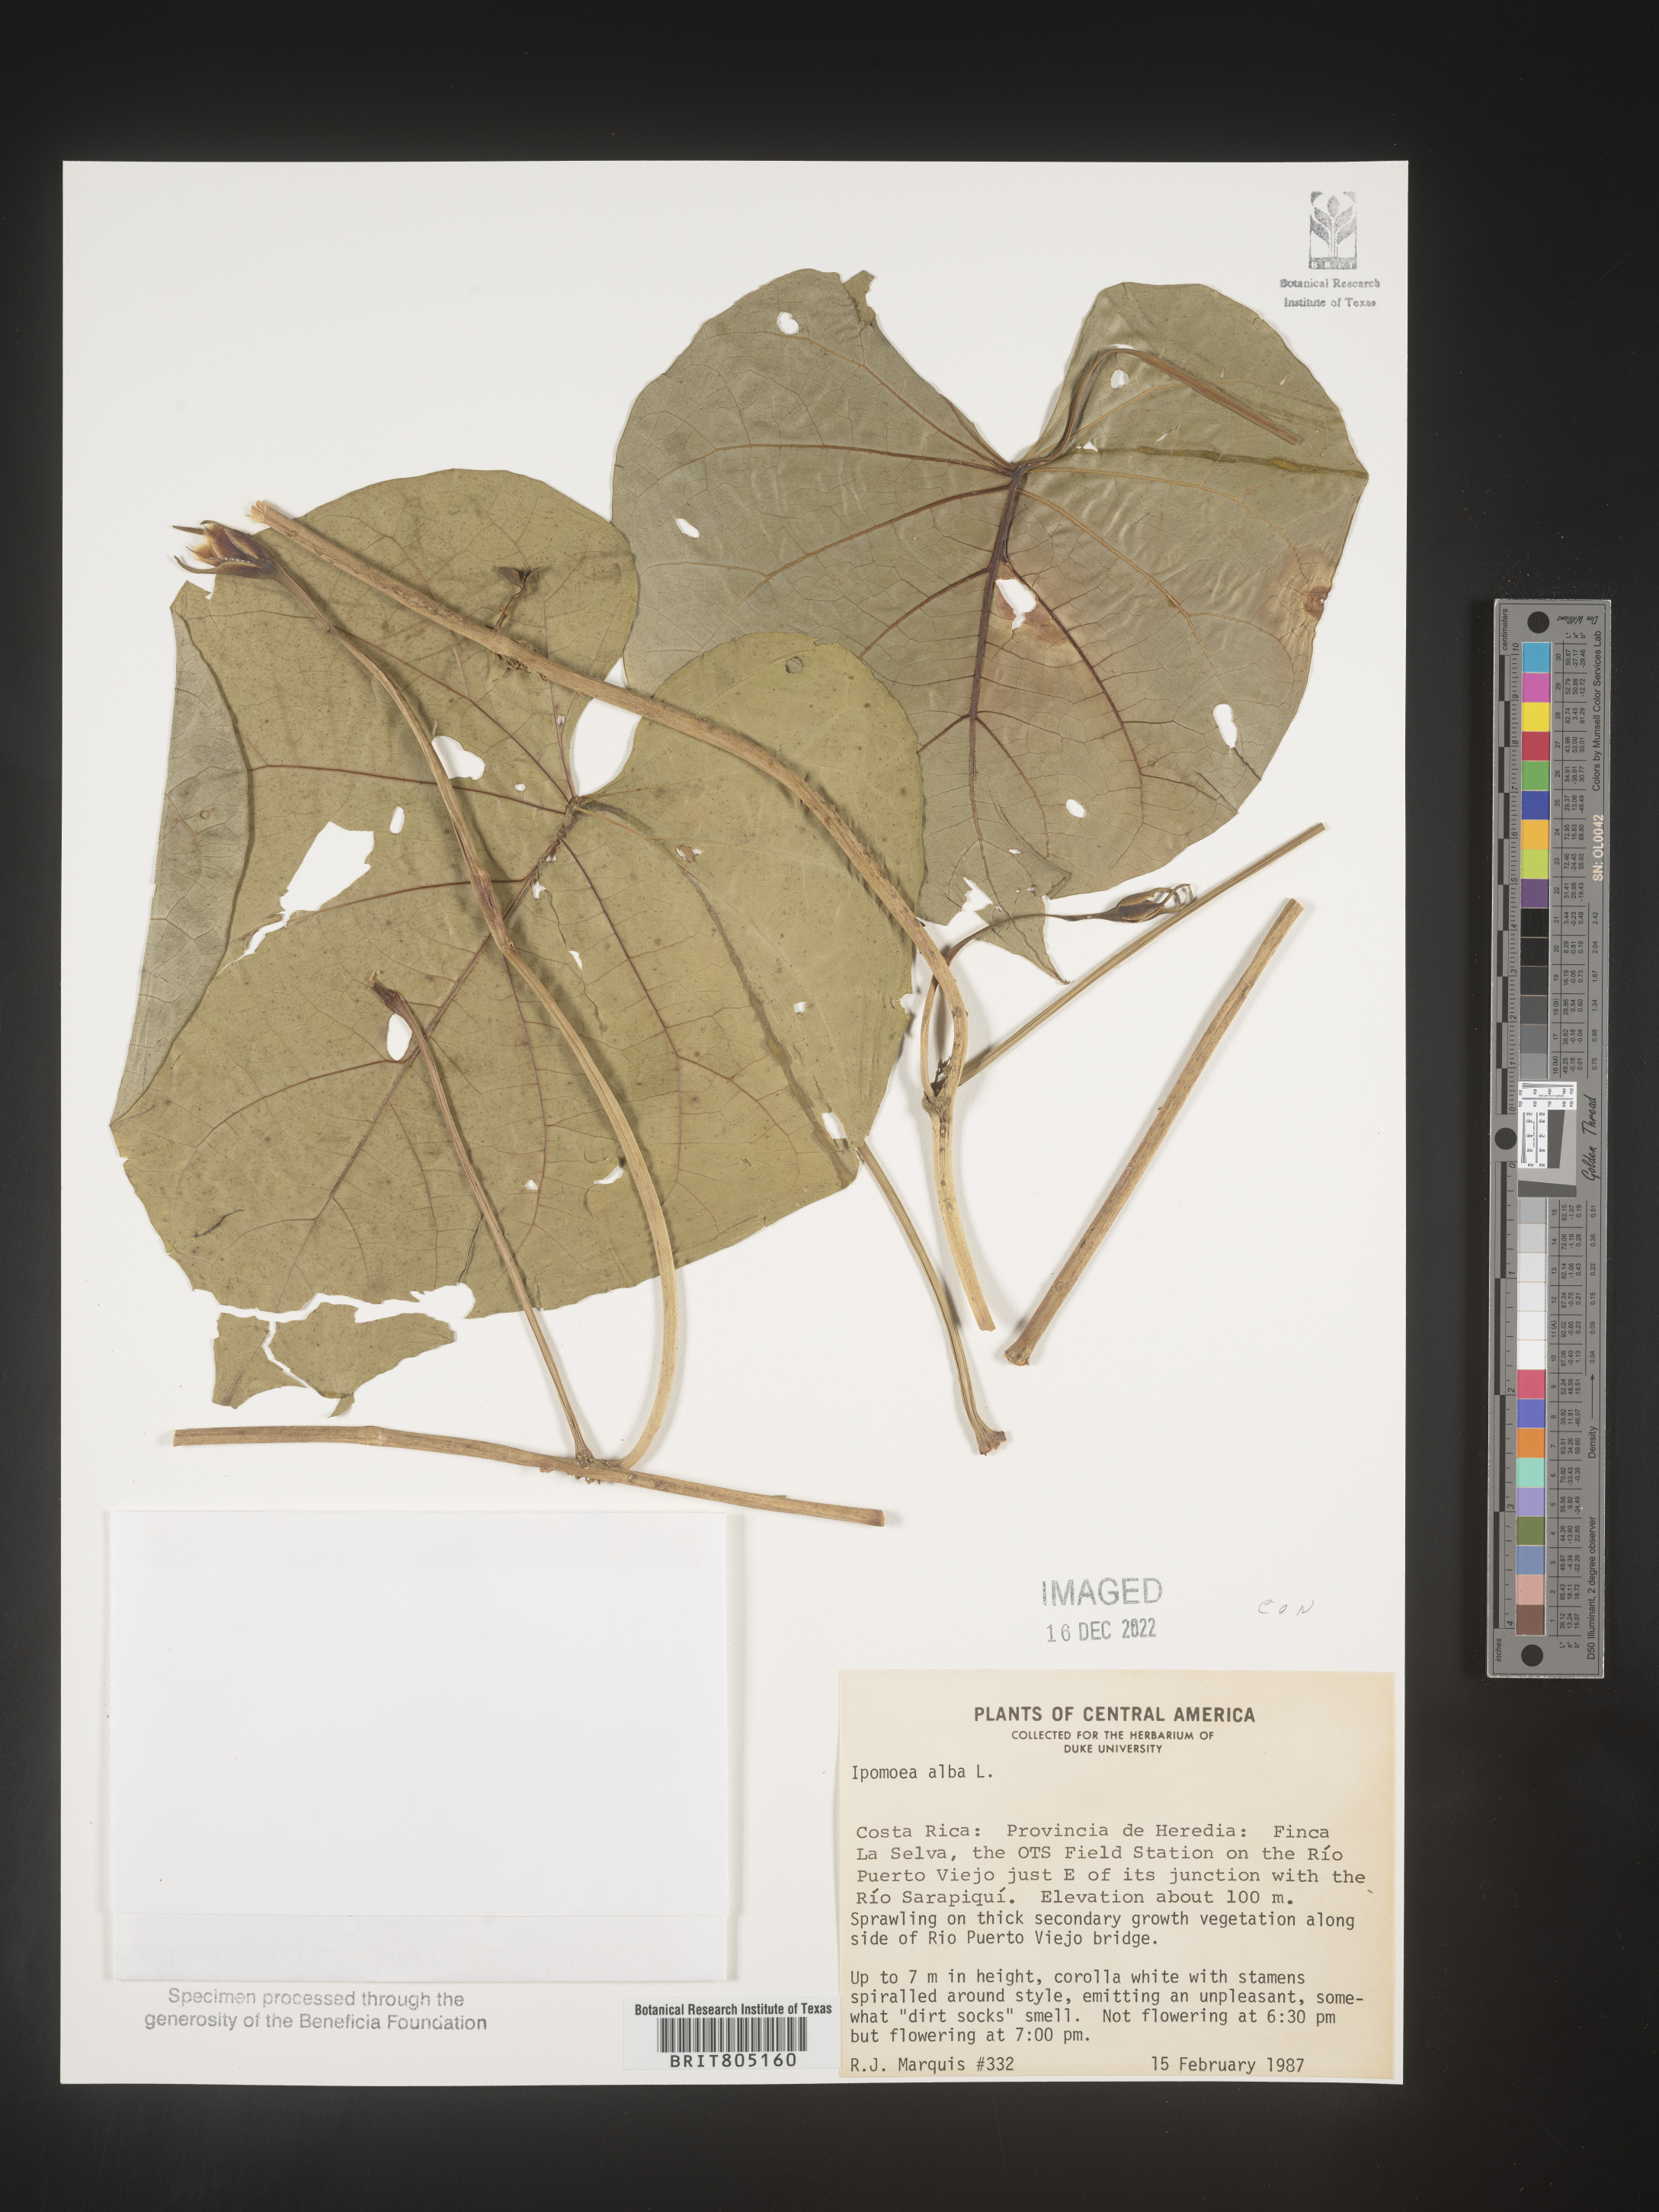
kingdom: Plantae
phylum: Tracheophyta
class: Magnoliopsida
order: Solanales
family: Convolvulaceae
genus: Ipomoea
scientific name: Ipomoea
